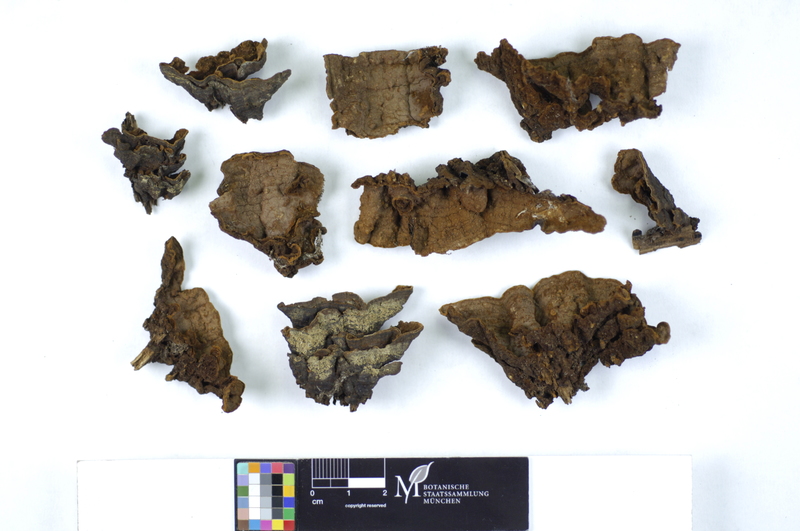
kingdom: Fungi
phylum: Basidiomycota
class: Agaricomycetes
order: Hymenochaetales
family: Hymenochaetaceae
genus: Hymenochaete
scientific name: Hymenochaete rubiginosa
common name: Oak curtain crust
